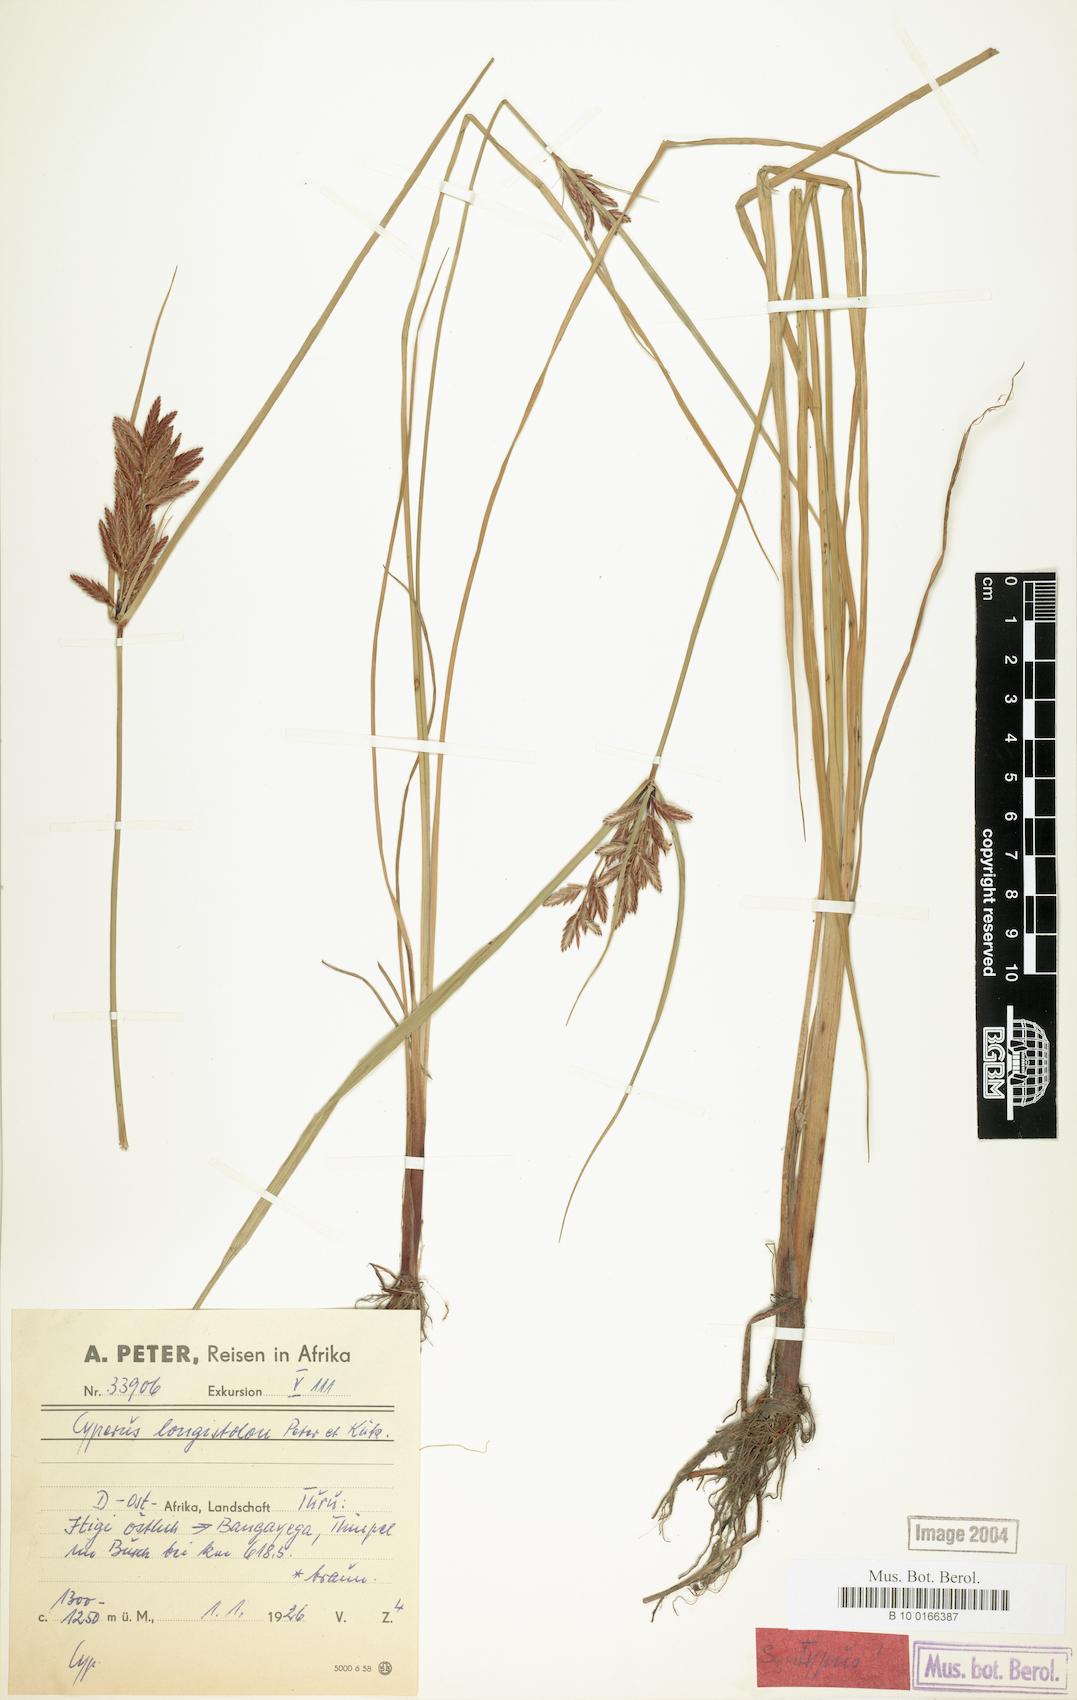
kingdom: Plantae
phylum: Tracheophyta
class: Liliopsida
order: Poales
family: Cyperaceae
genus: Cyperus
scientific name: Cyperus chrysanthus
